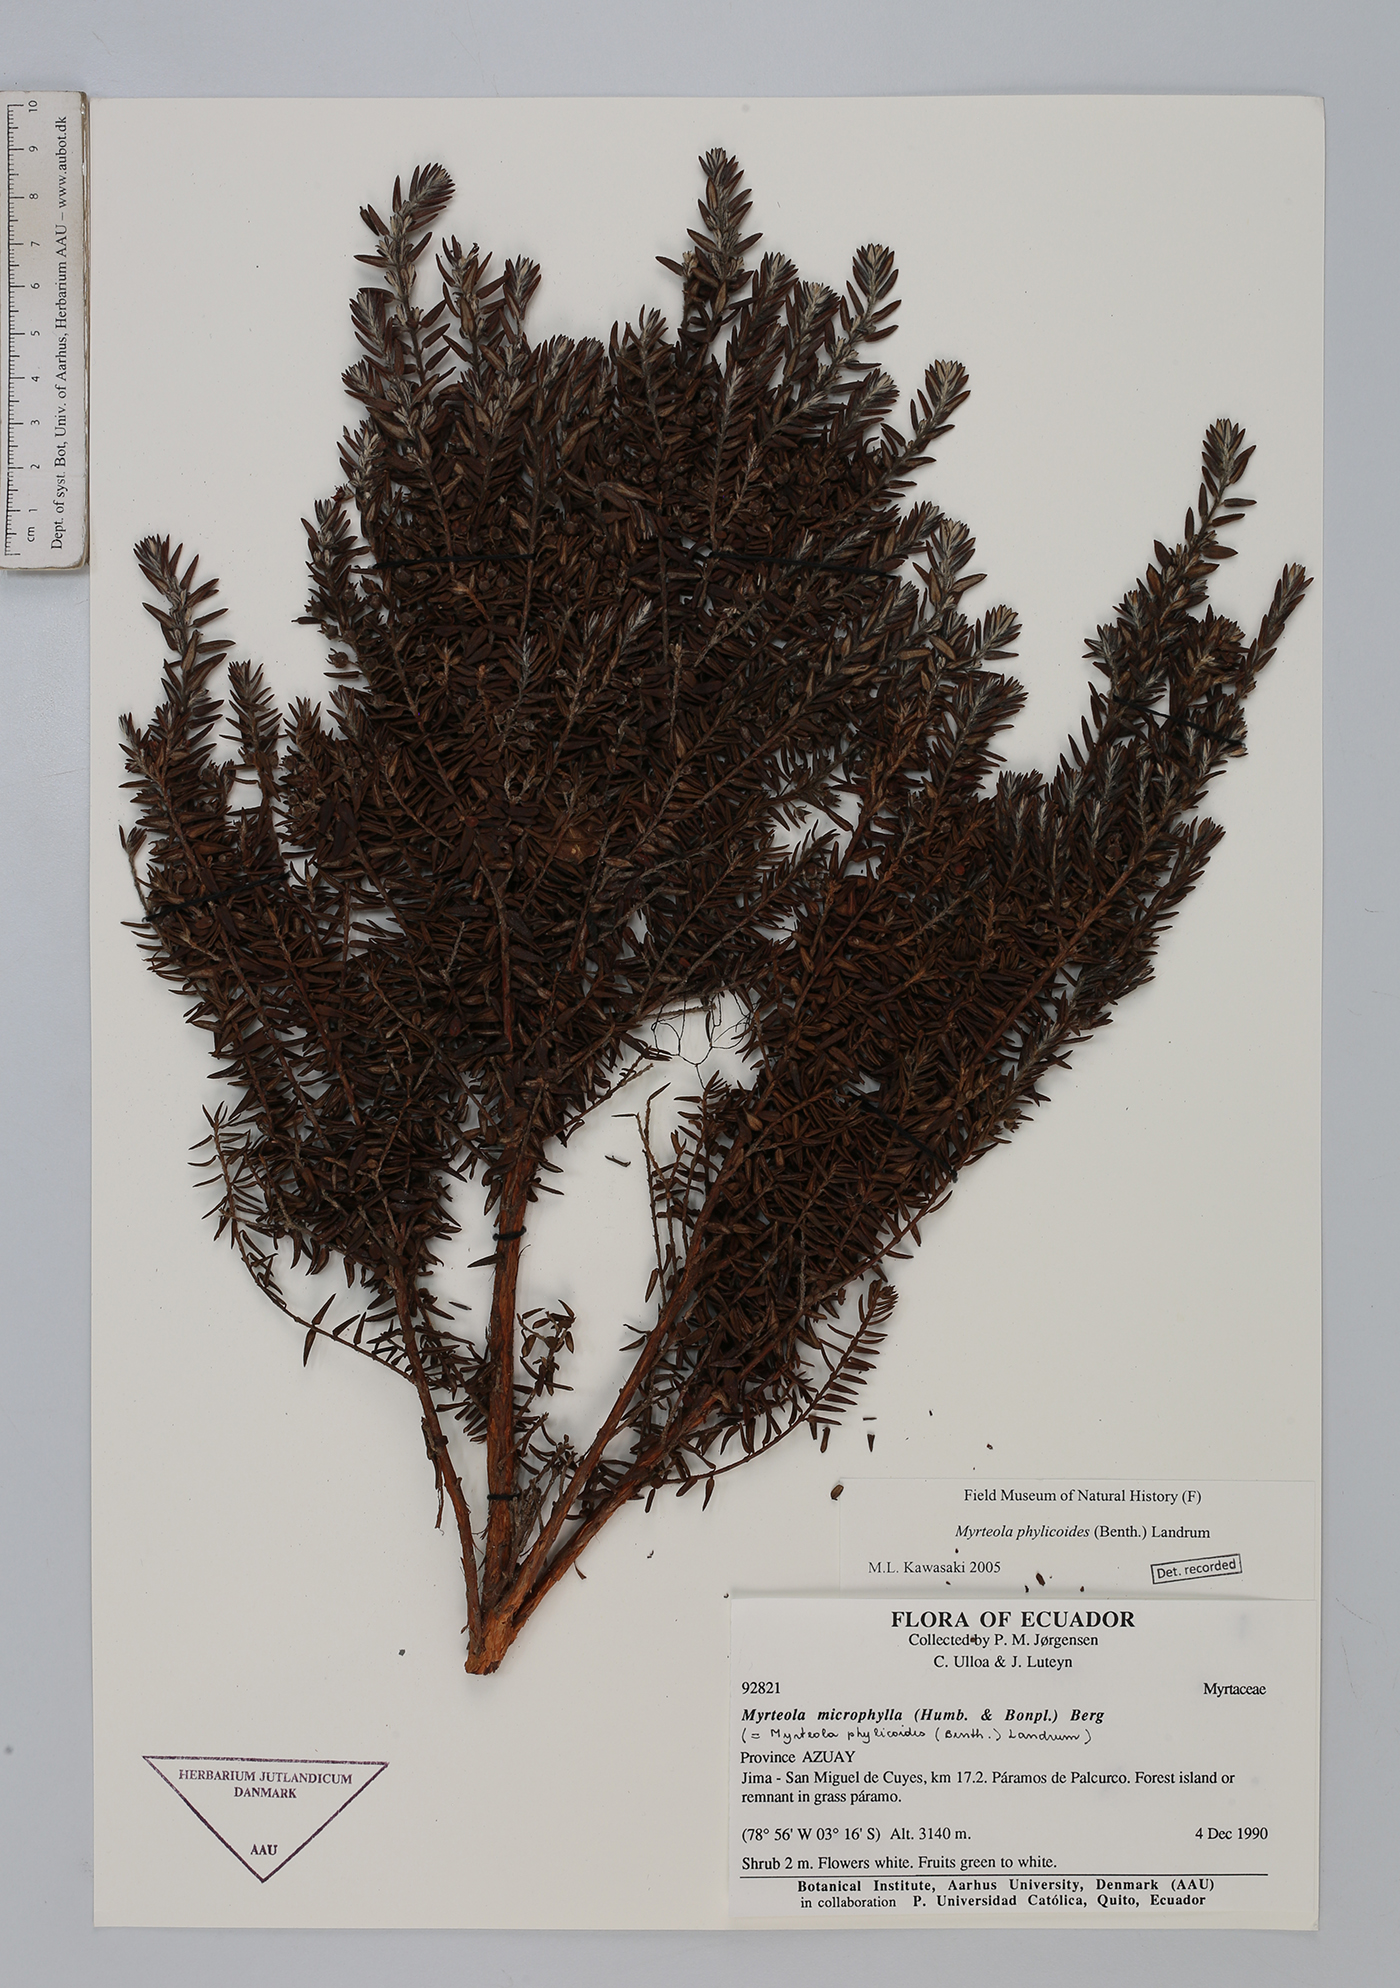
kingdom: Plantae
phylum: Tracheophyta
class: Magnoliopsida
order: Myrtales
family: Myrtaceae
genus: Myrteola
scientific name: Myrteola phylicoides
